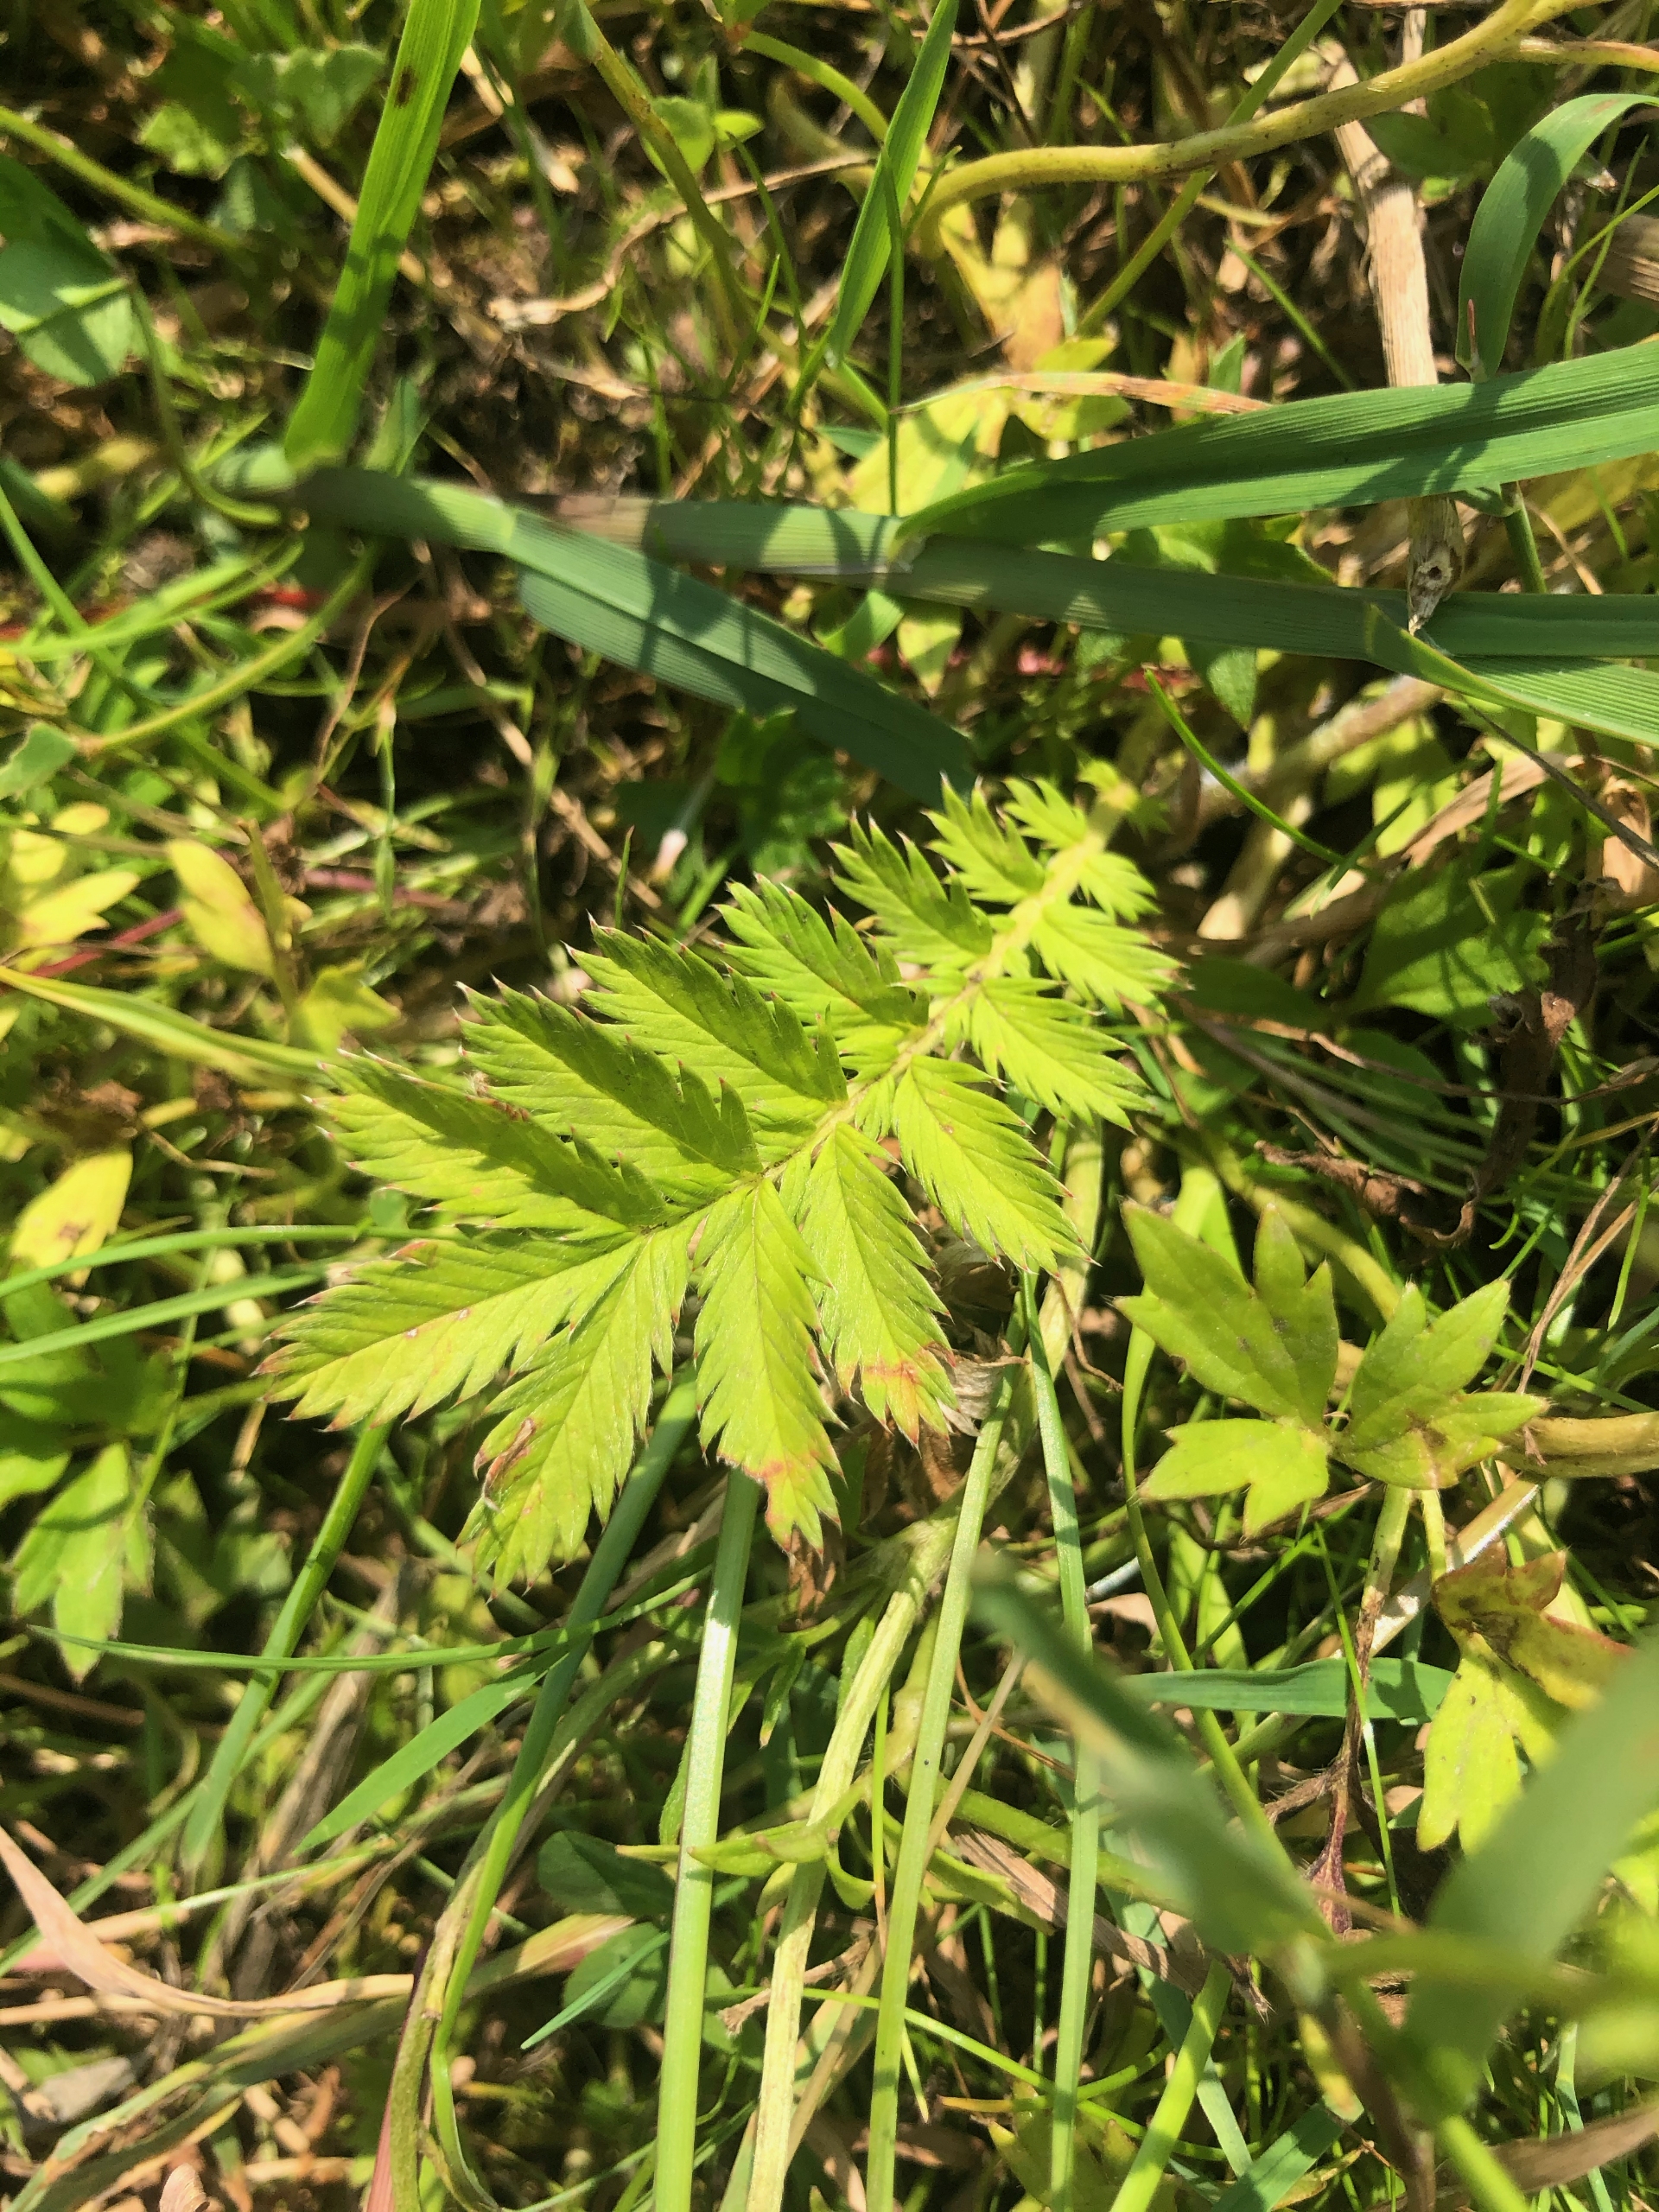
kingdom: Plantae
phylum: Tracheophyta
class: Magnoliopsida
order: Rosales
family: Rosaceae
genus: Argentina
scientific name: Argentina anserina
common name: Gåsepotentil
